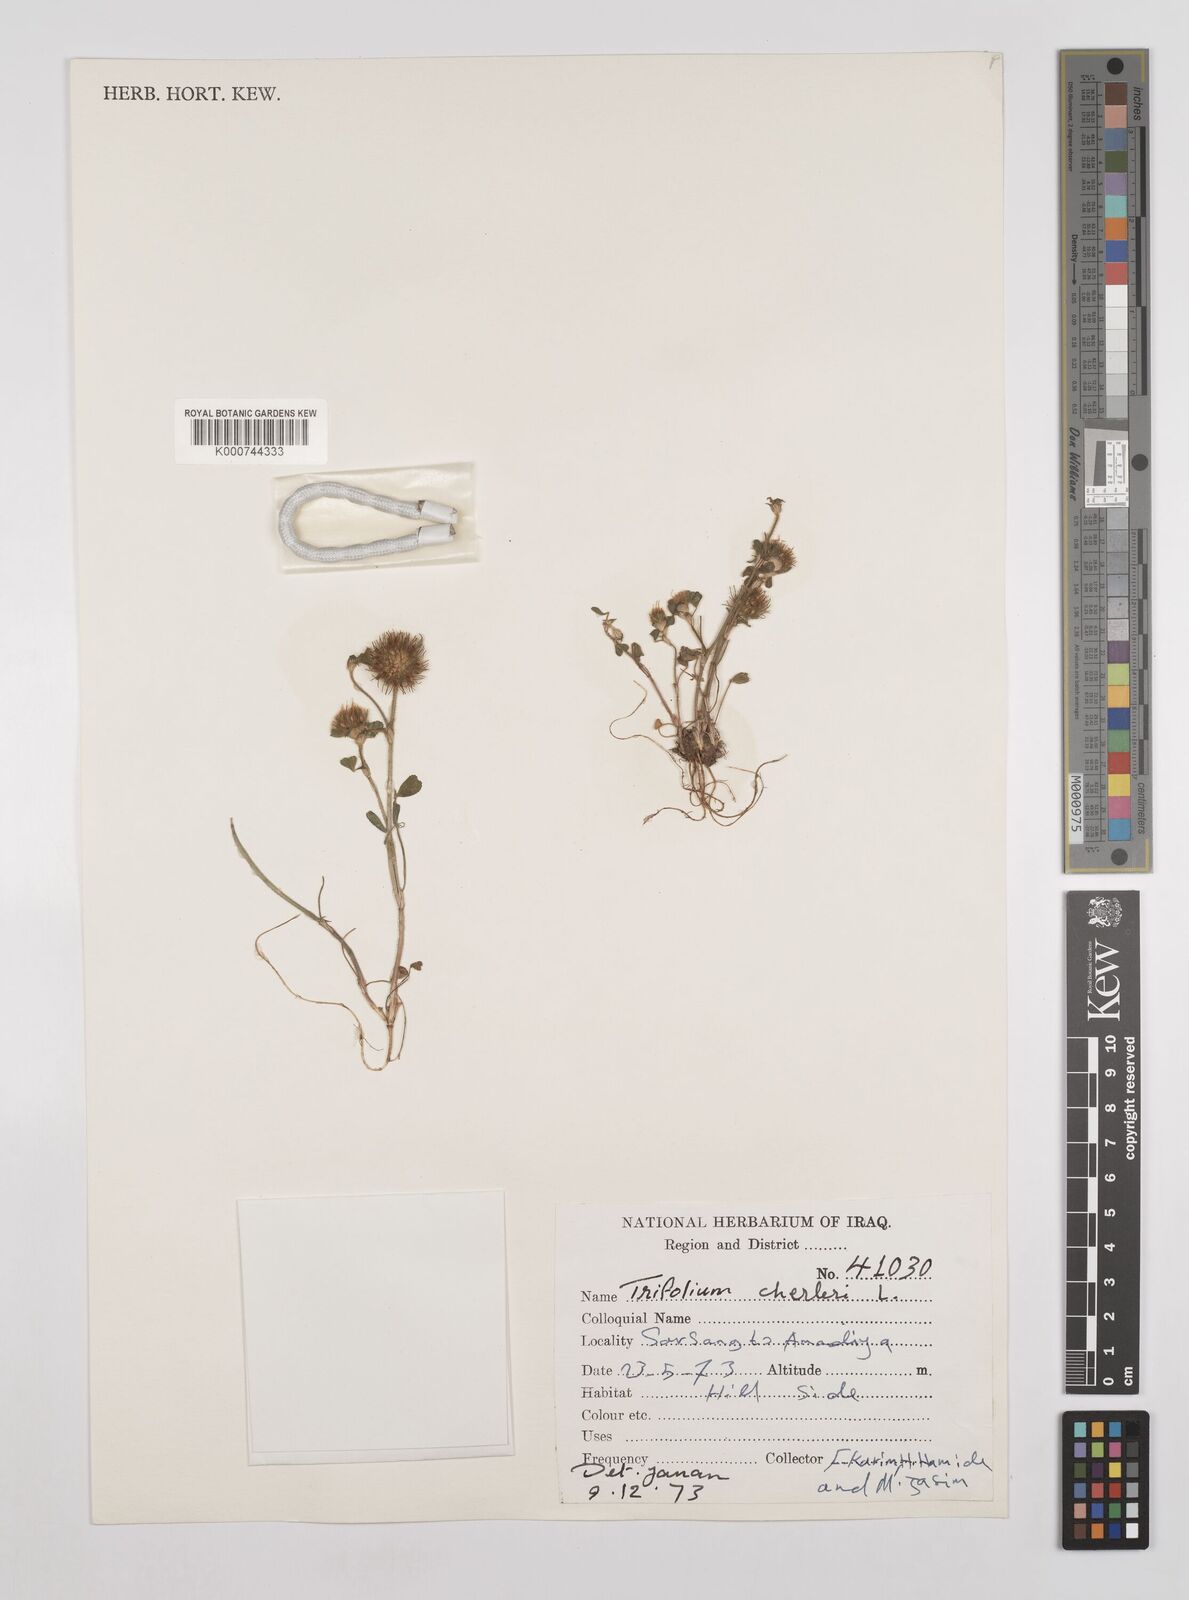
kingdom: Plantae
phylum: Tracheophyta
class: Magnoliopsida
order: Fabales
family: Fabaceae
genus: Trifolium
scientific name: Trifolium cherleri
